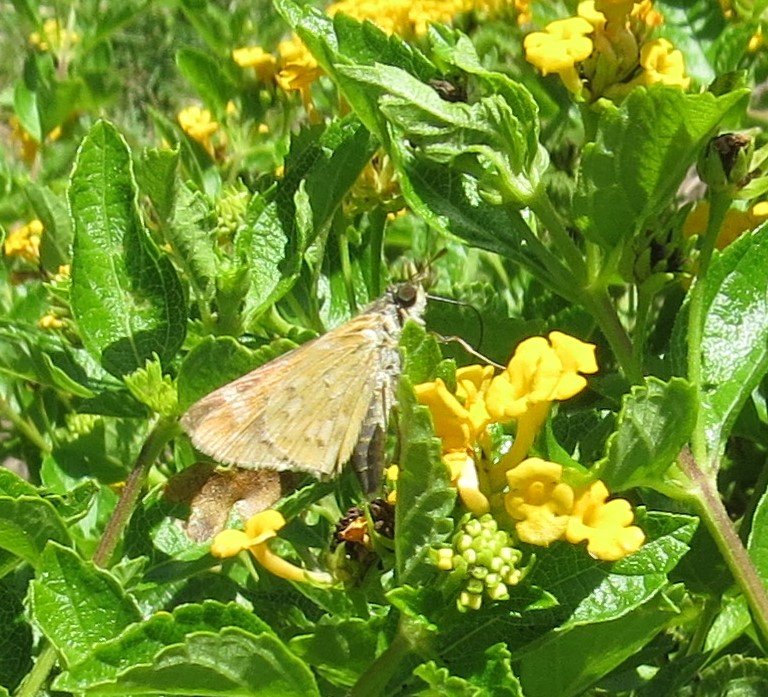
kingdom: Animalia
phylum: Arthropoda
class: Insecta
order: Lepidoptera
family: Hesperiidae
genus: Atalopedes
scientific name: Atalopedes campestris
